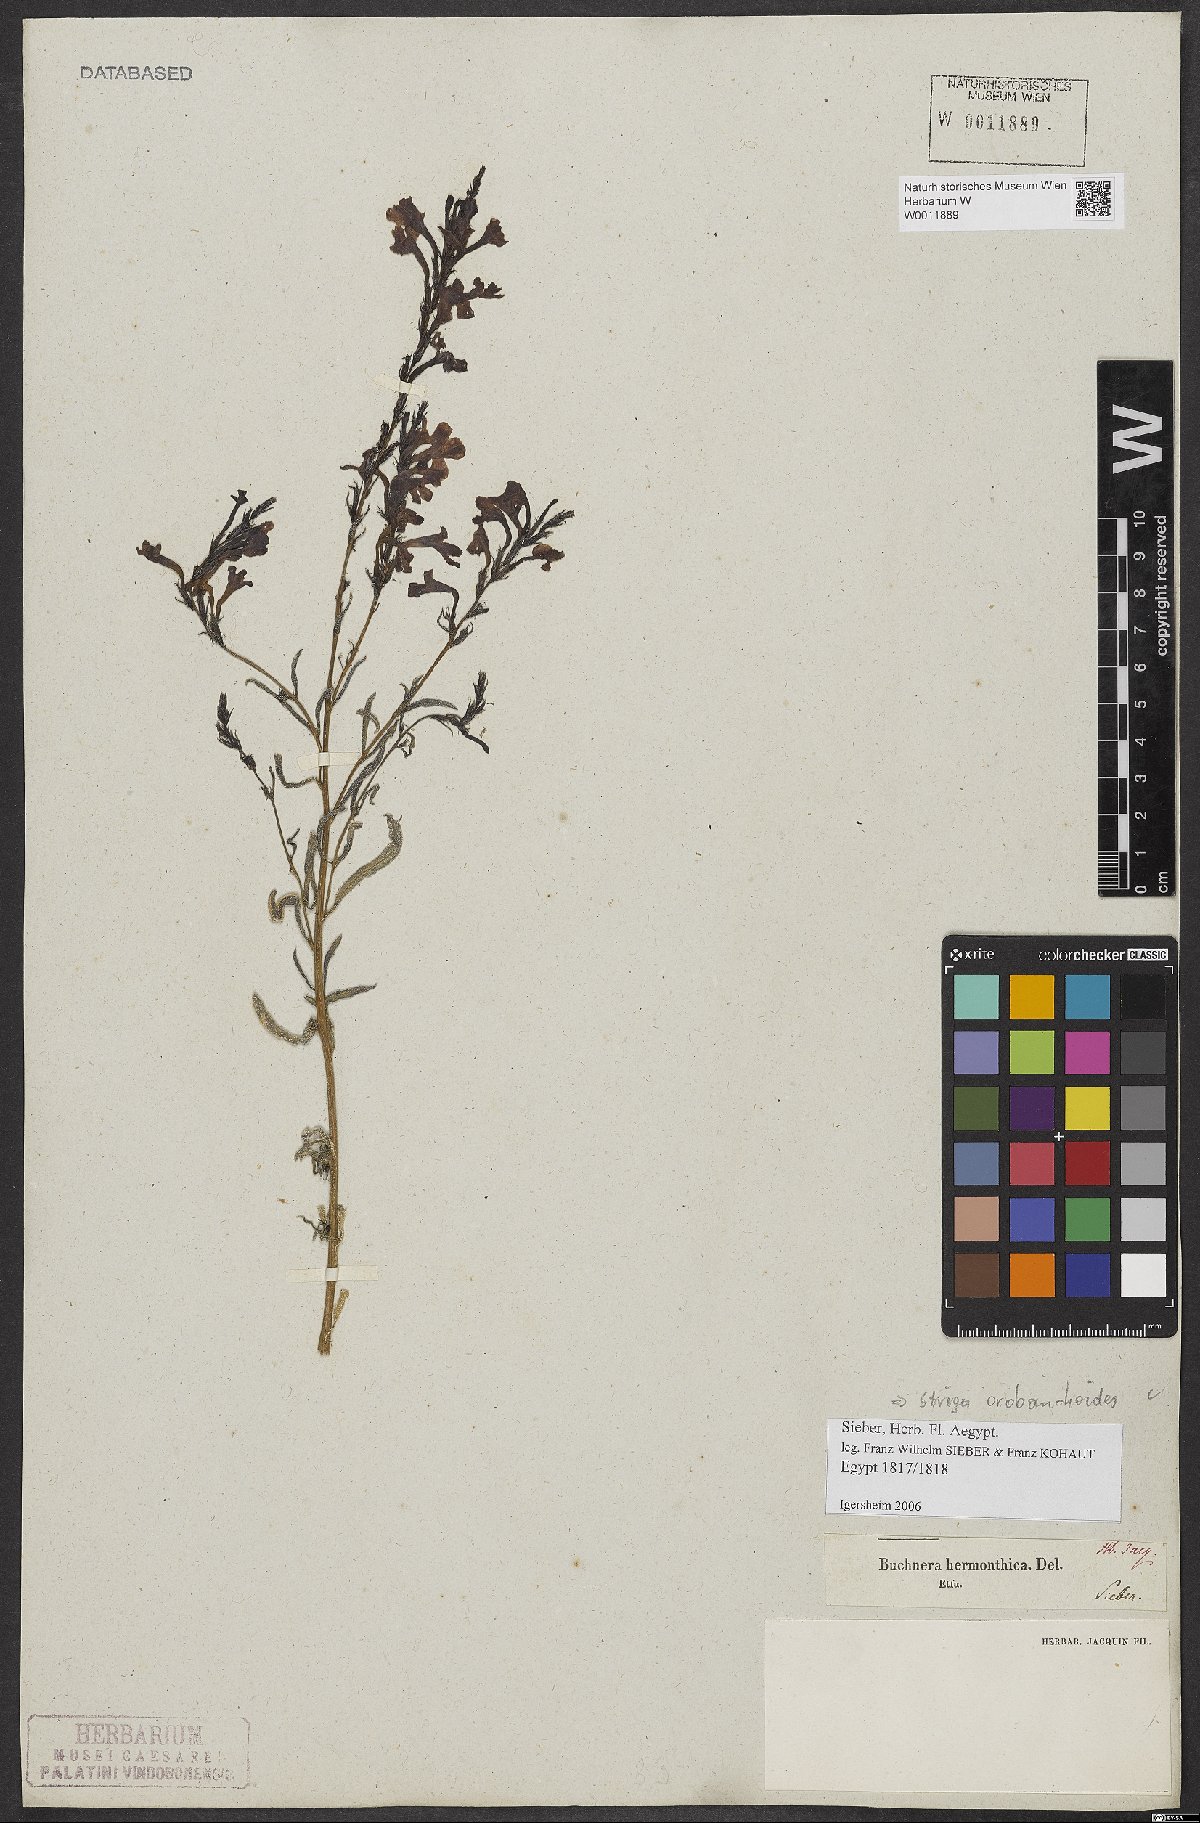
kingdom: Plantae
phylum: Tracheophyta
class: Magnoliopsida
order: Lamiales
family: Orobanchaceae
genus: Striga
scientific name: Striga barthlottii
